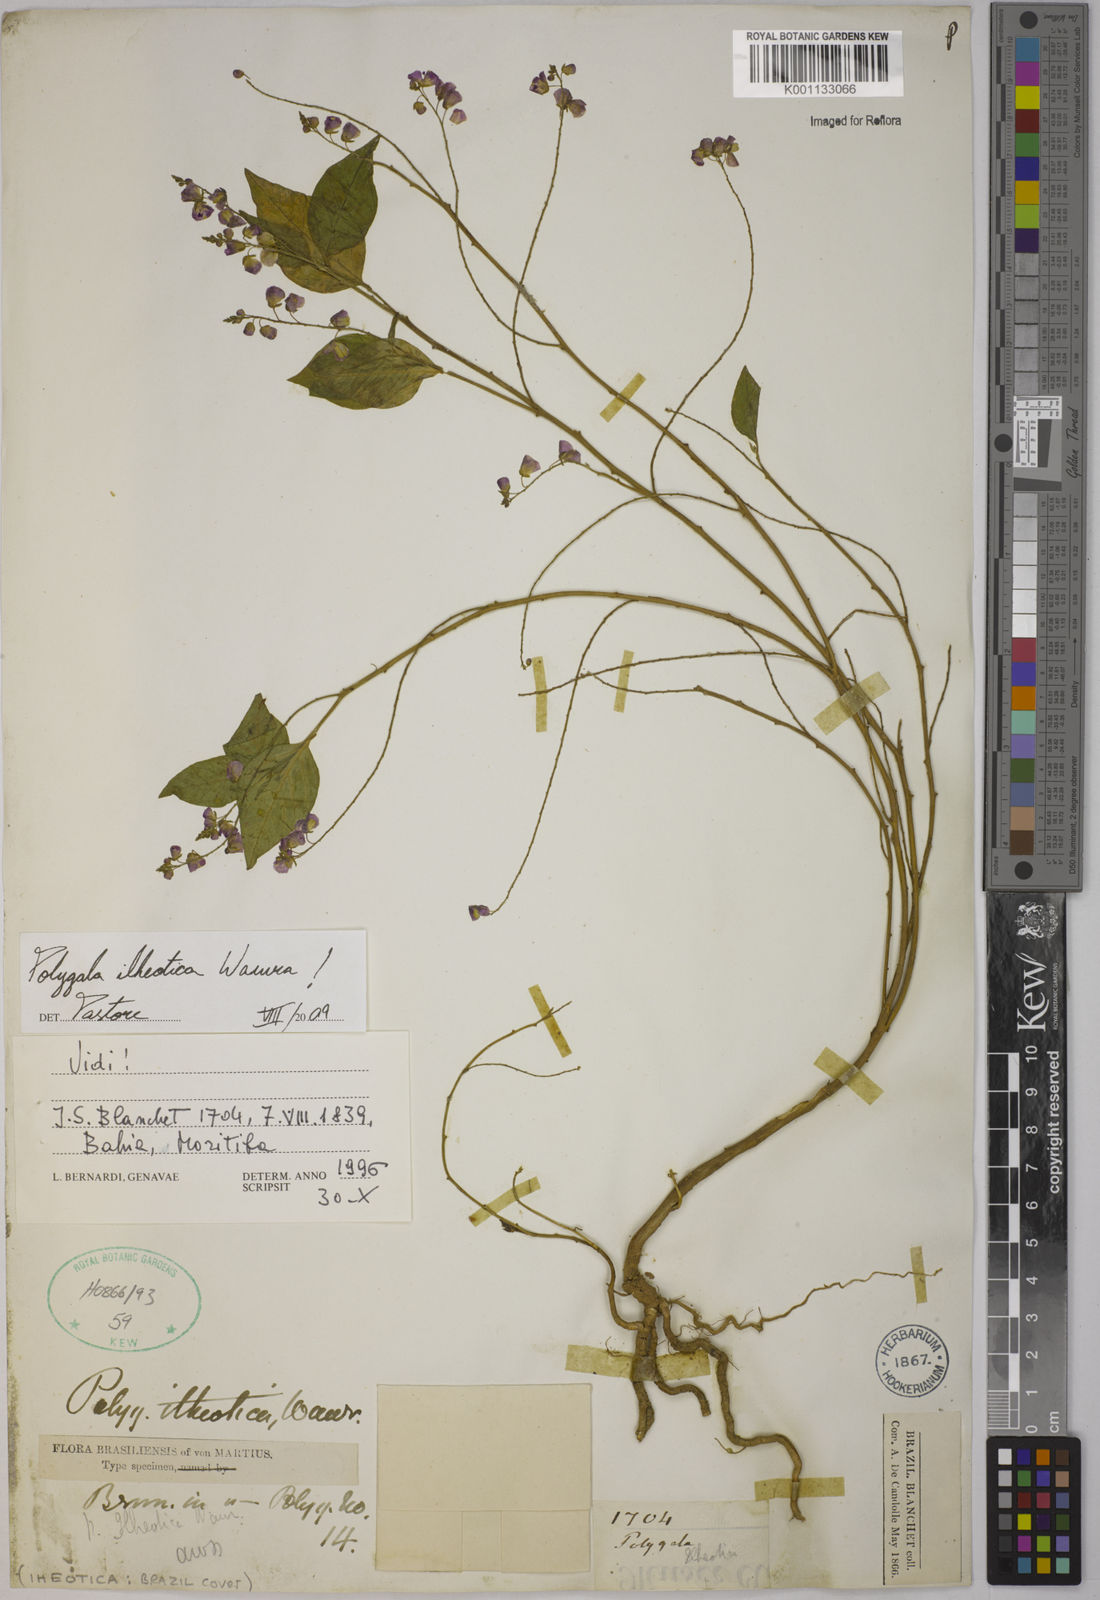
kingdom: Plantae
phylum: Tracheophyta
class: Magnoliopsida
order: Fabales
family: Polygalaceae
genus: Asemeia
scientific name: Asemeia ilheotica
